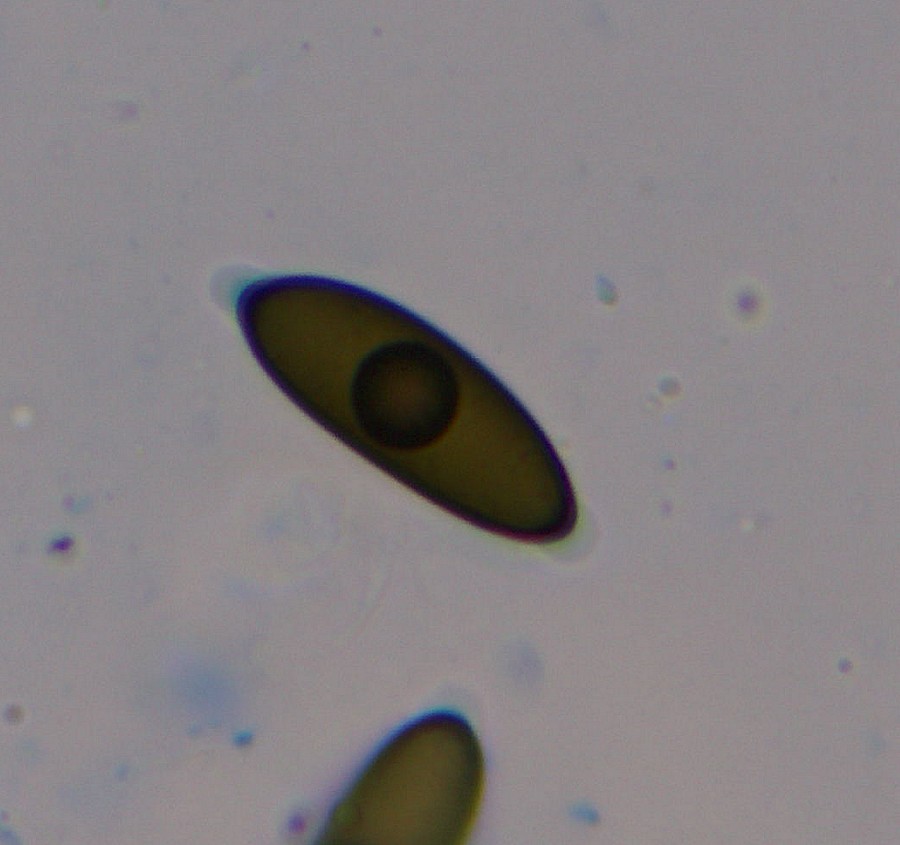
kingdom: Fungi
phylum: Ascomycota
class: Sordariomycetes
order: Xylariales
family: Xylariaceae
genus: Rosellinia
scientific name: Rosellinia aquila
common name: tykskallet kulkaviar
